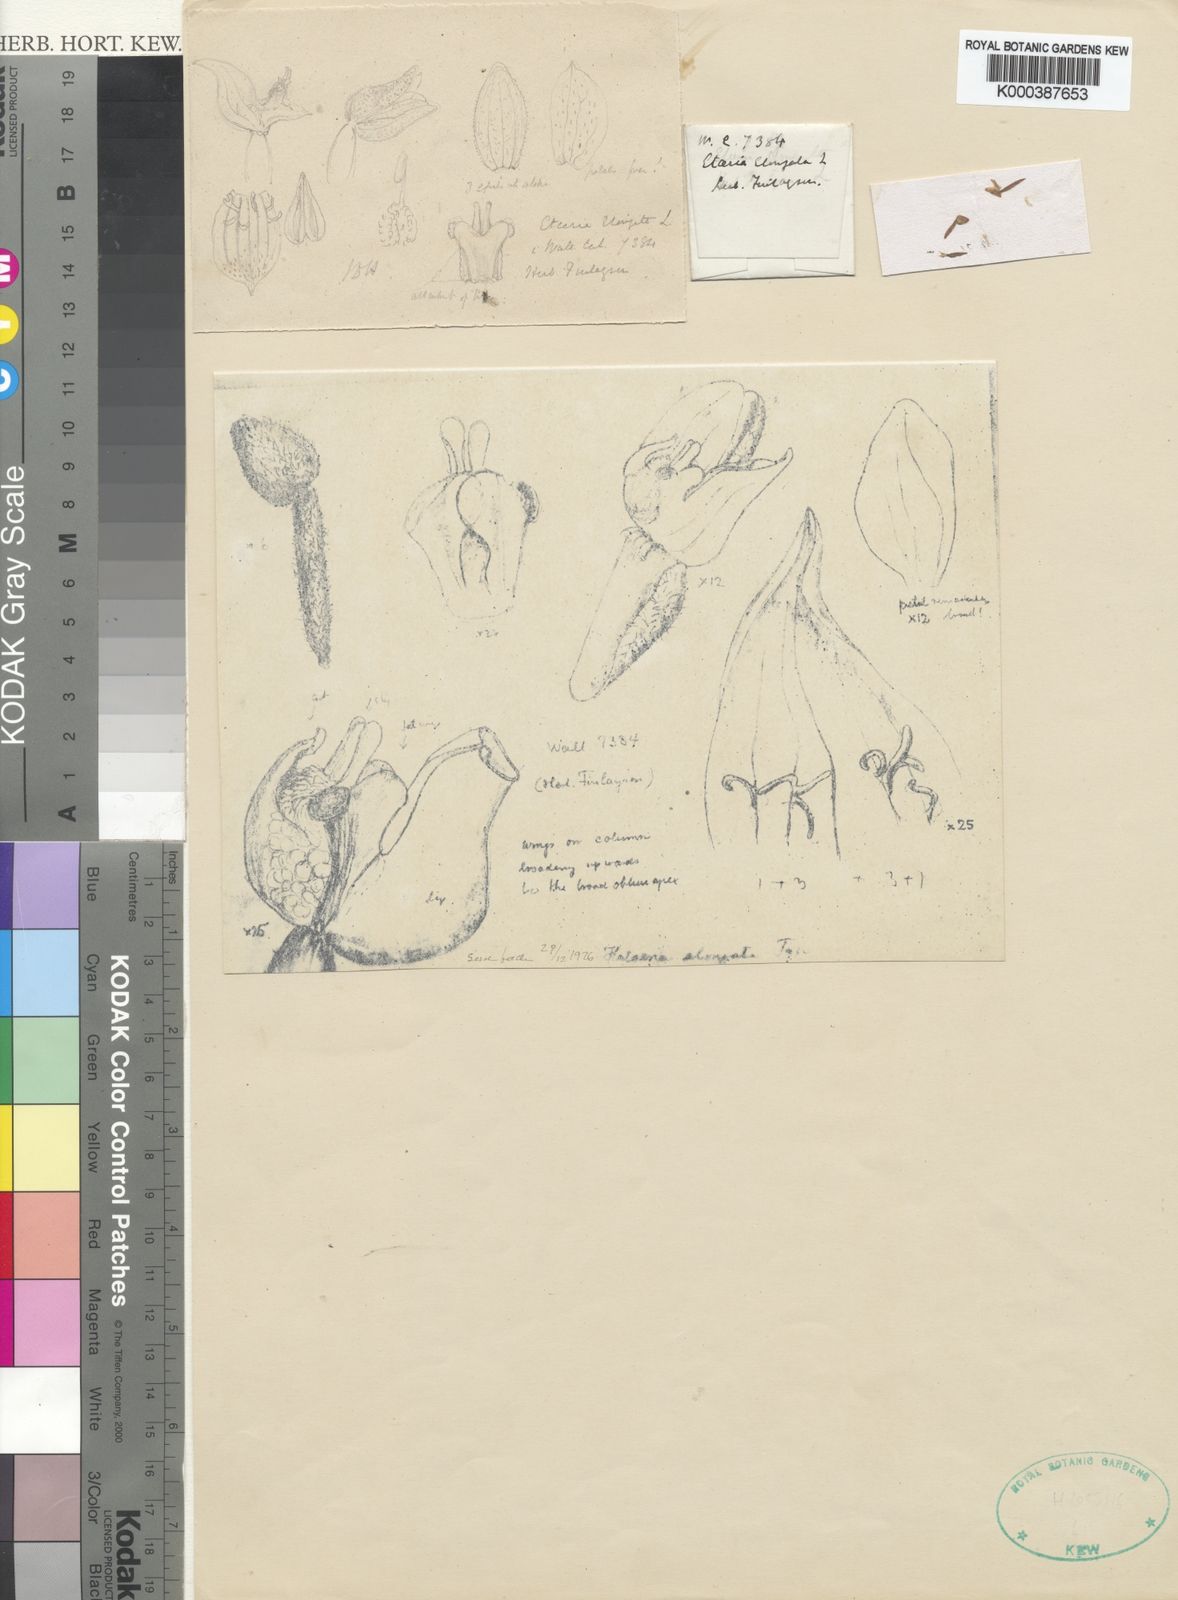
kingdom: Plantae
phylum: Tracheophyta
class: Liliopsida
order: Asparagales
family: Orchidaceae
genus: Hetaeria
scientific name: Hetaeria finlaysoniana
